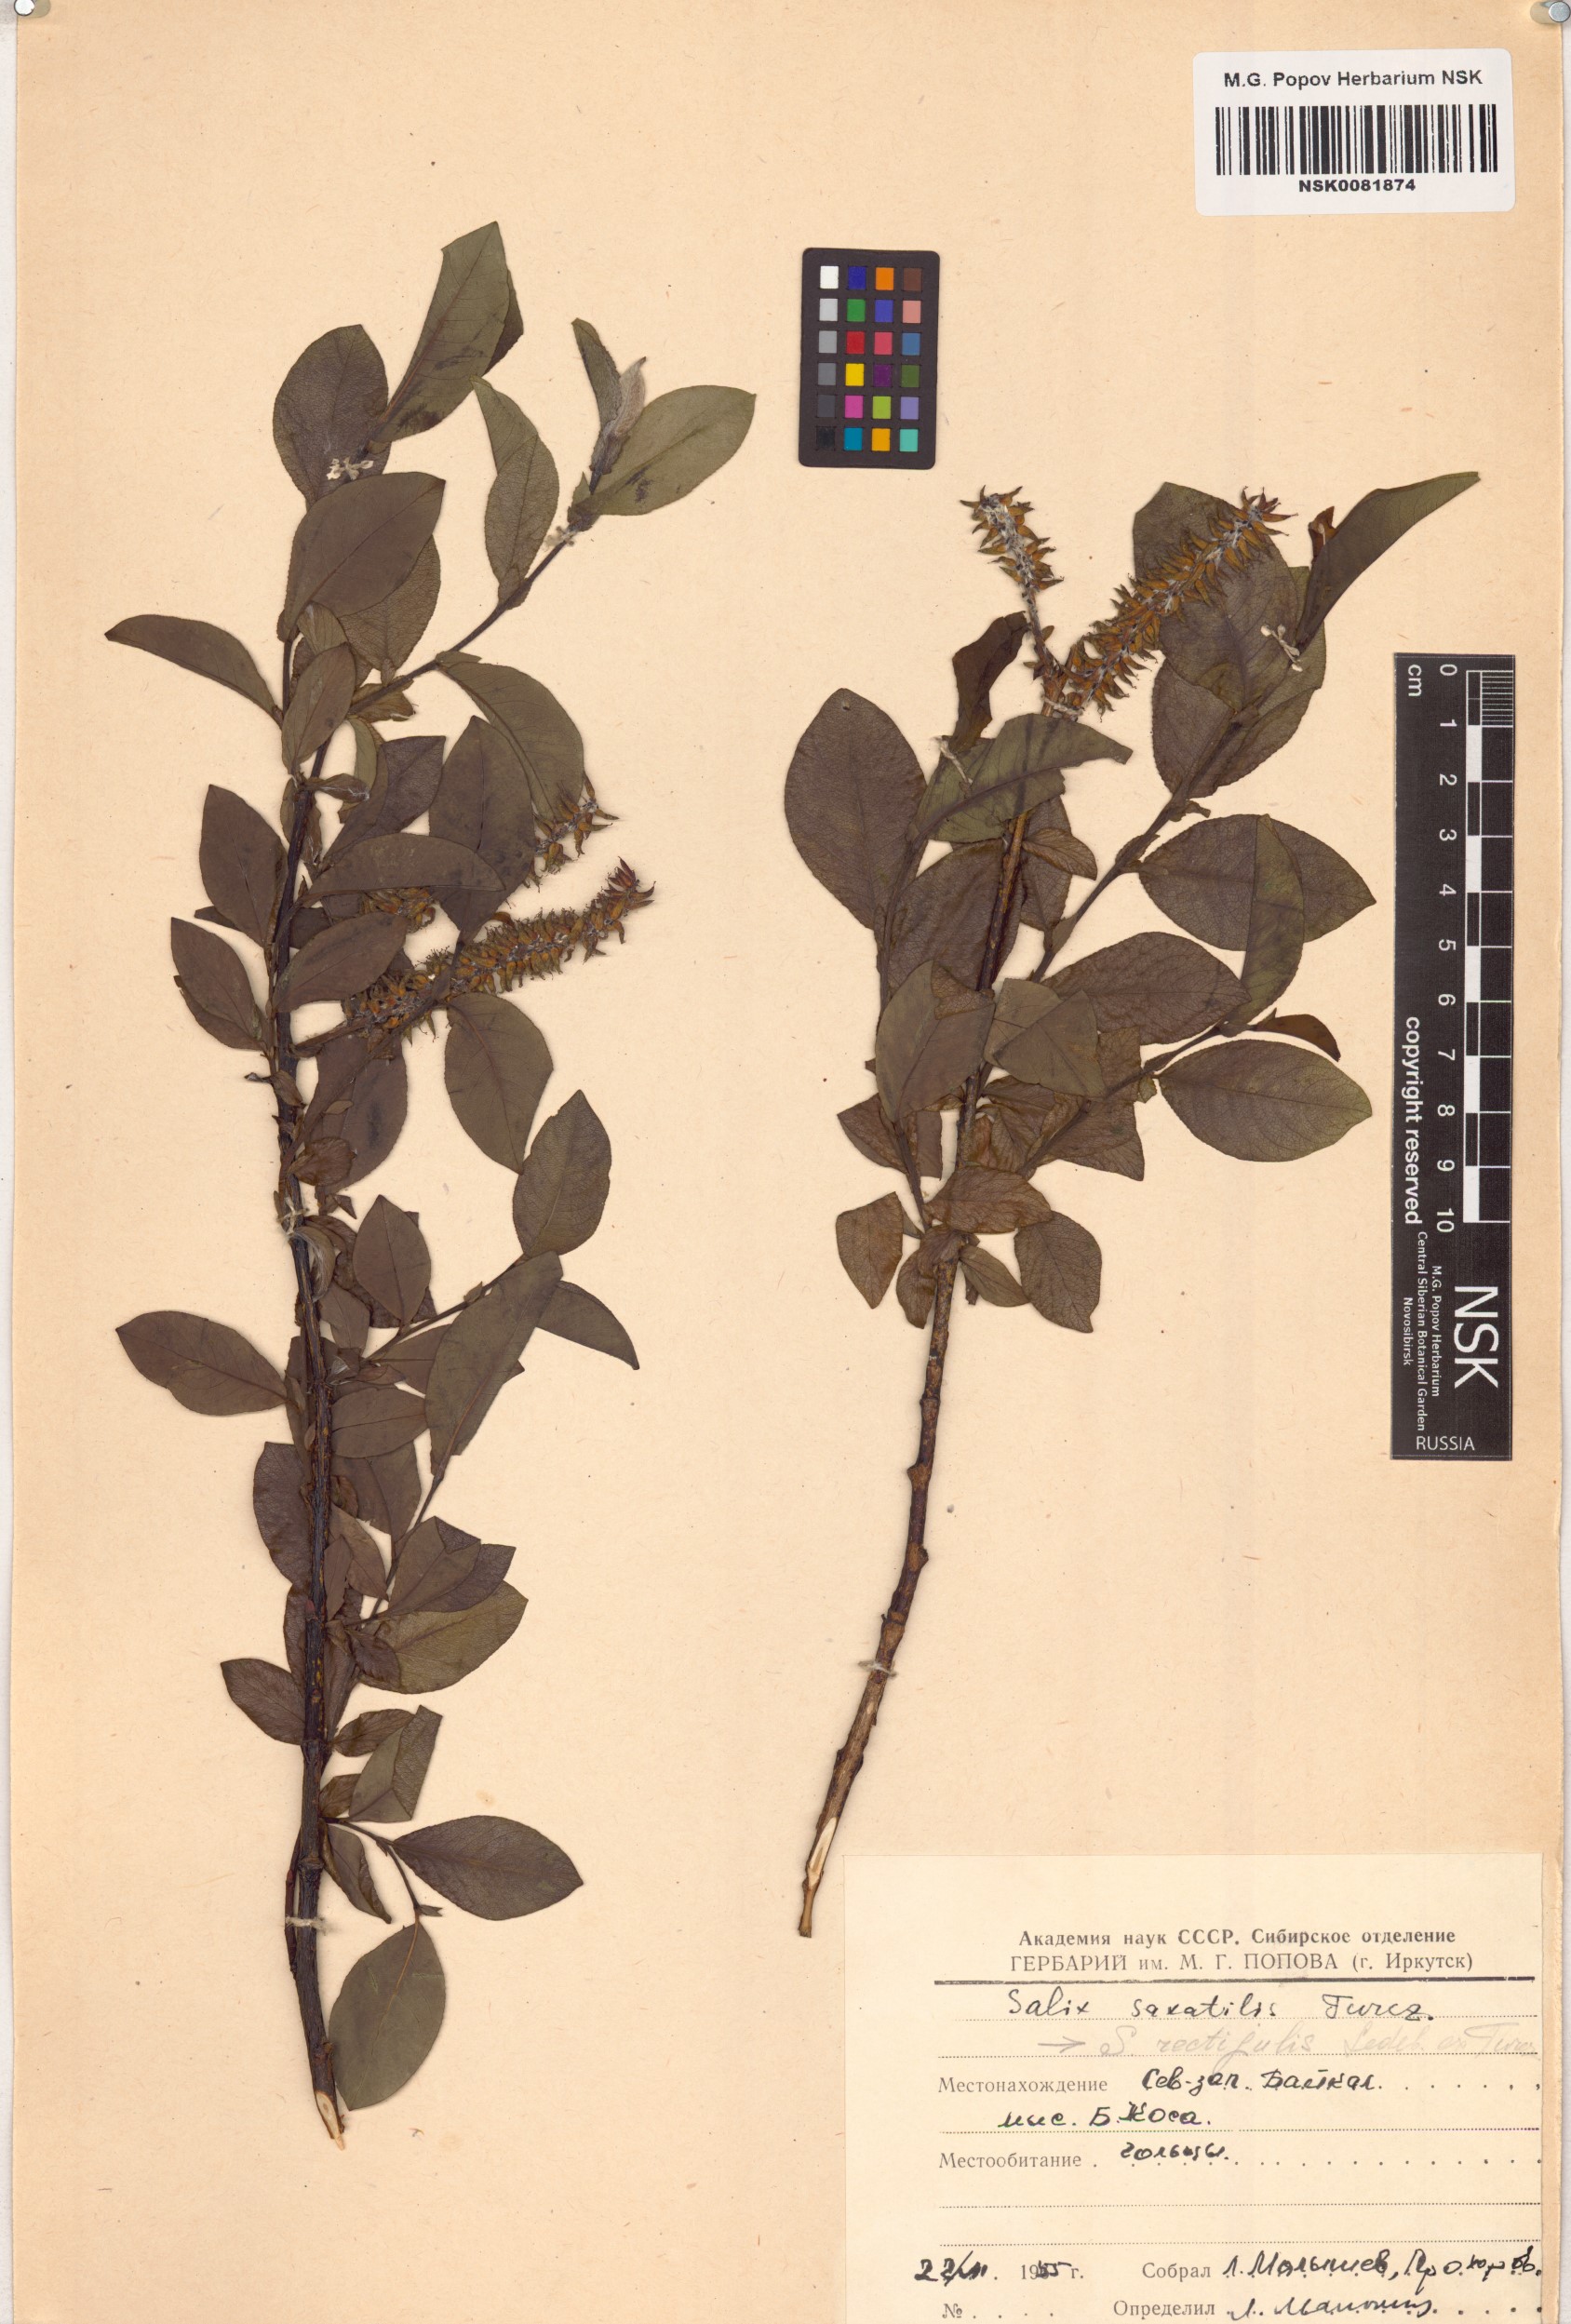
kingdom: Plantae
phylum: Tracheophyta
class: Magnoliopsida
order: Malpighiales
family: Salicaceae
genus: Salix
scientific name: Salix saxatilis
